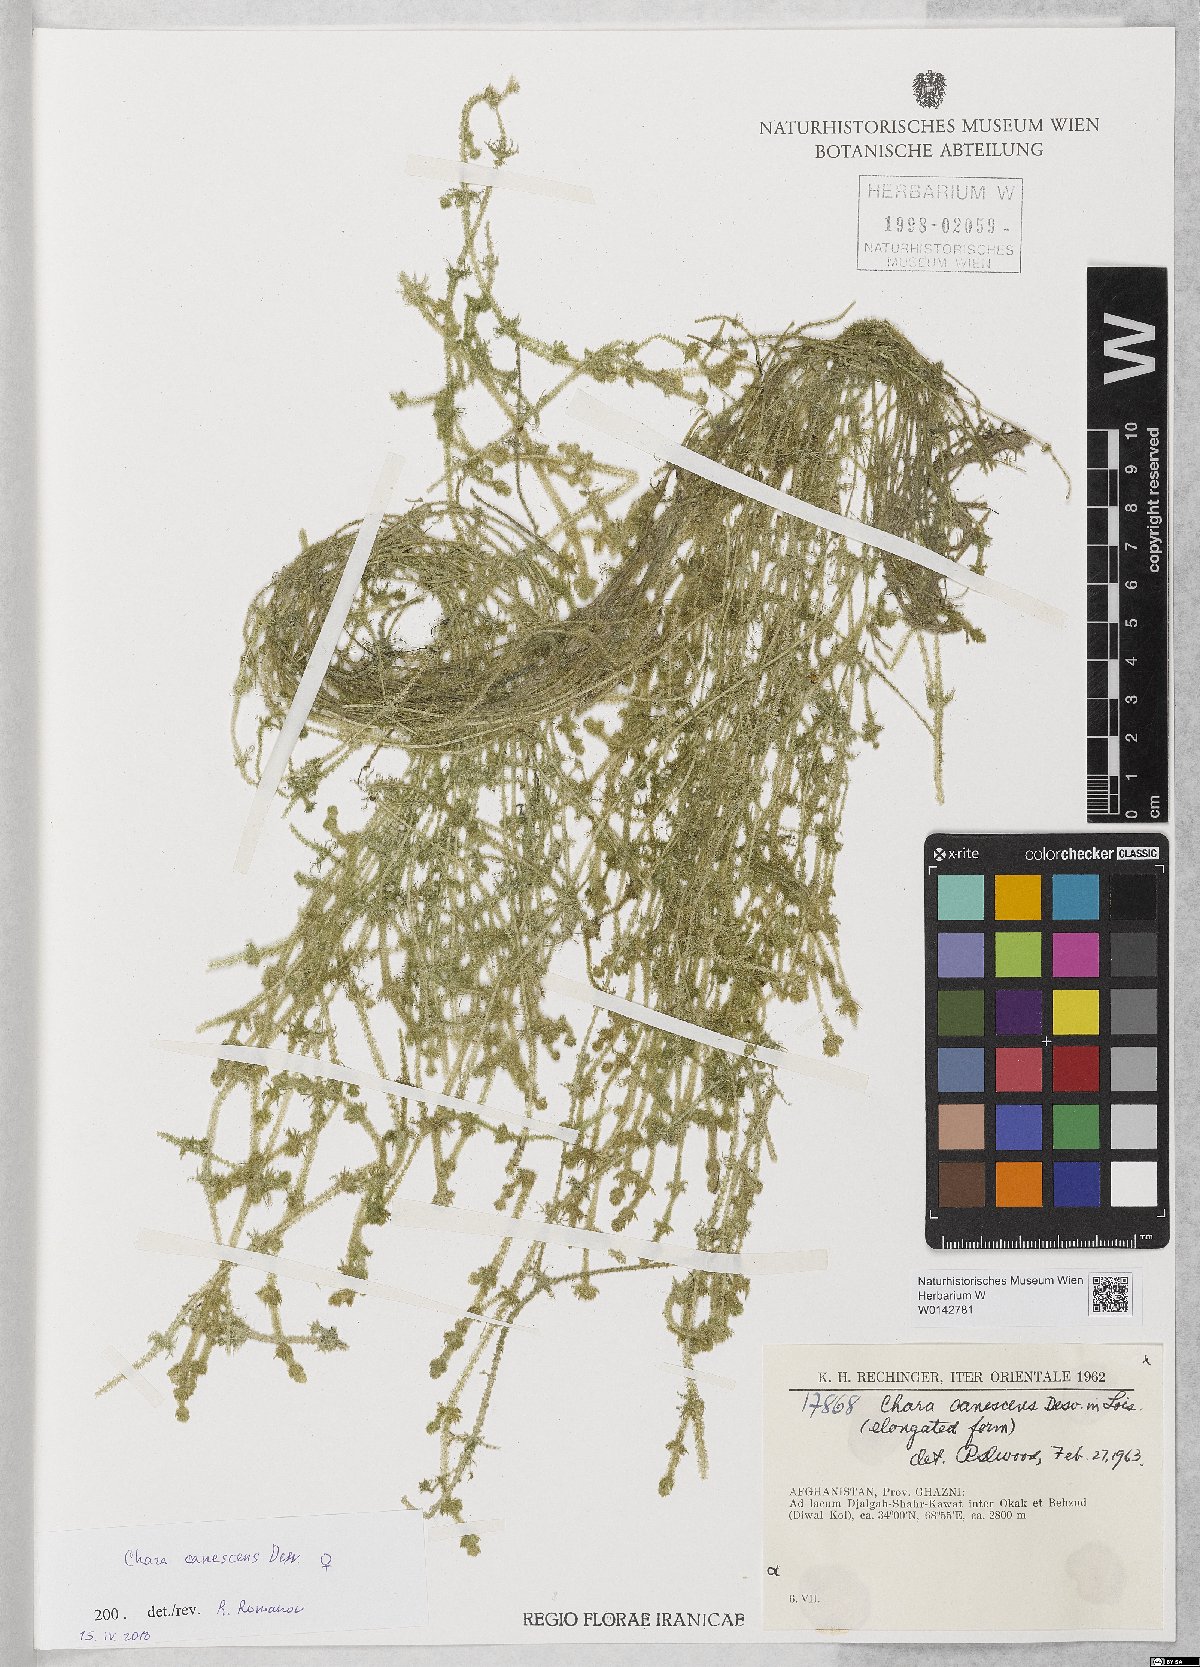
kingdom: Plantae
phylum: Charophyta
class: Charophyceae
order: Charales
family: Characeae
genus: Chara
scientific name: Chara canescens
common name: Bearded stonewort
